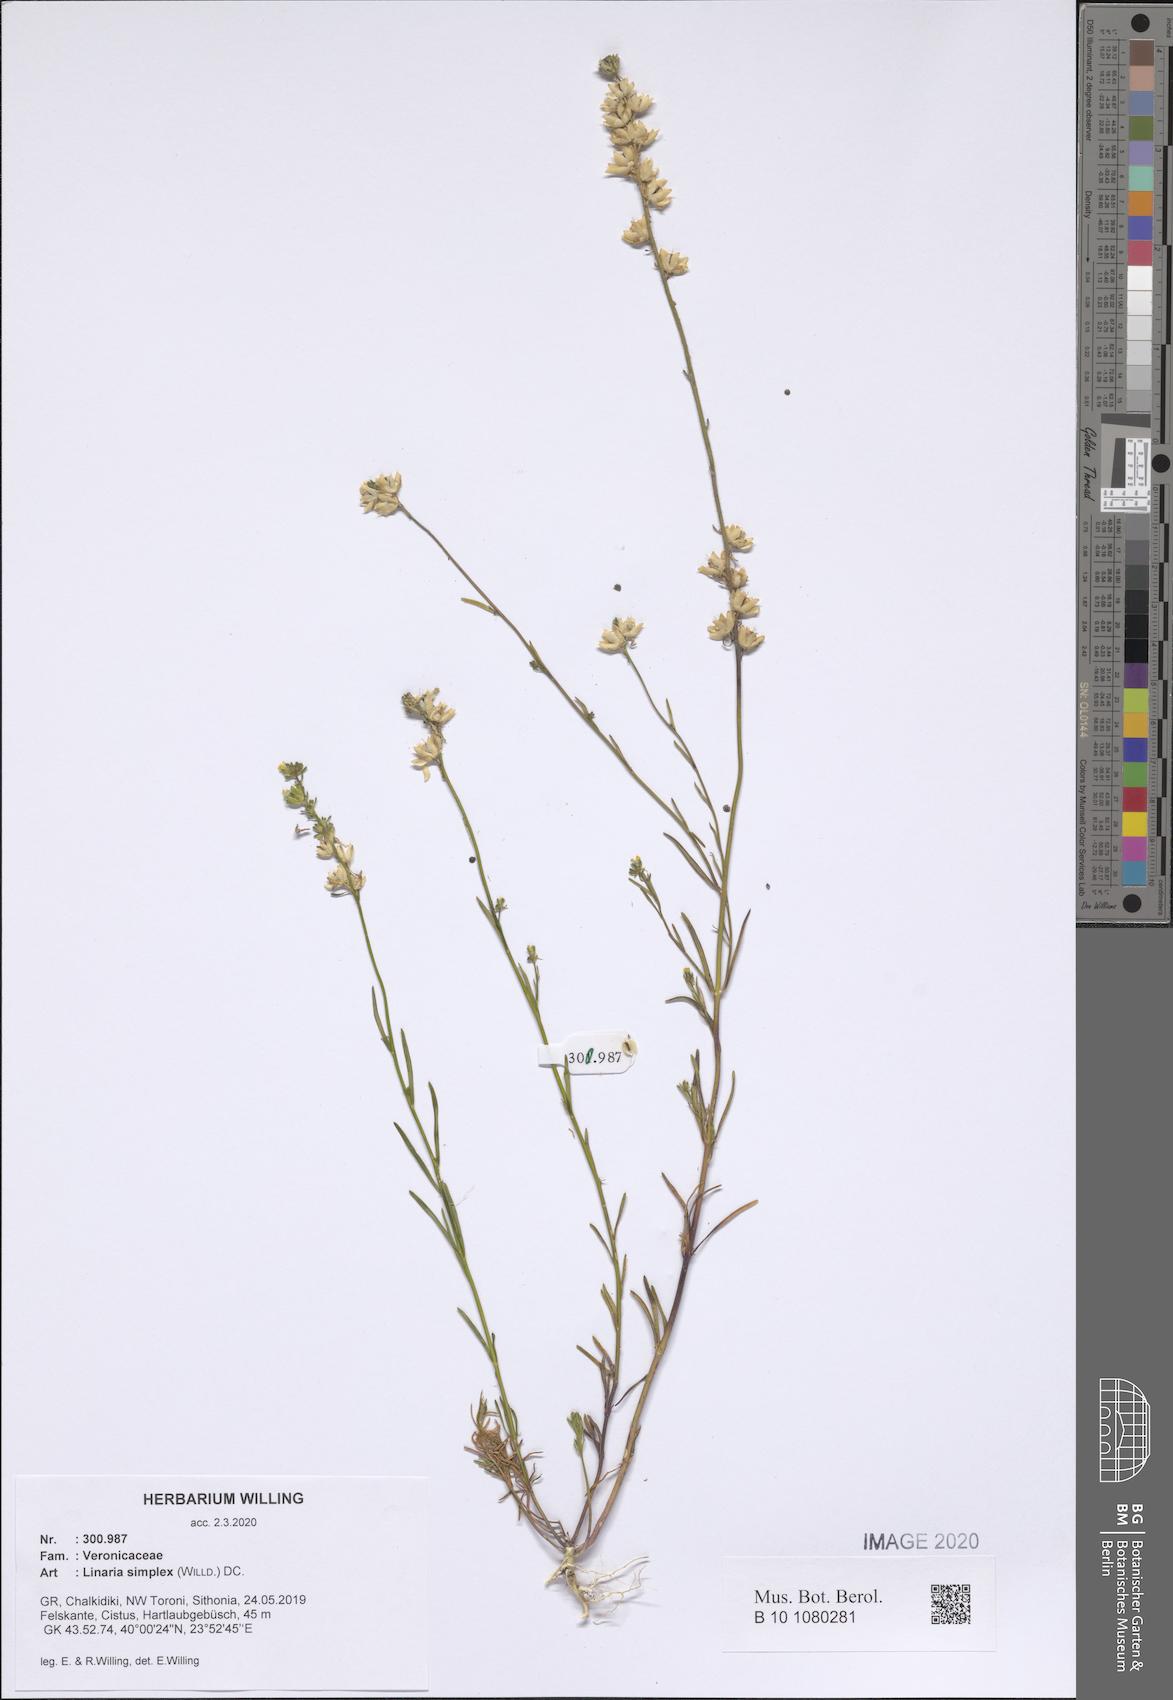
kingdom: Plantae
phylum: Tracheophyta
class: Magnoliopsida
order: Lamiales
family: Plantaginaceae
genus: Linaria
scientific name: Linaria simplex
